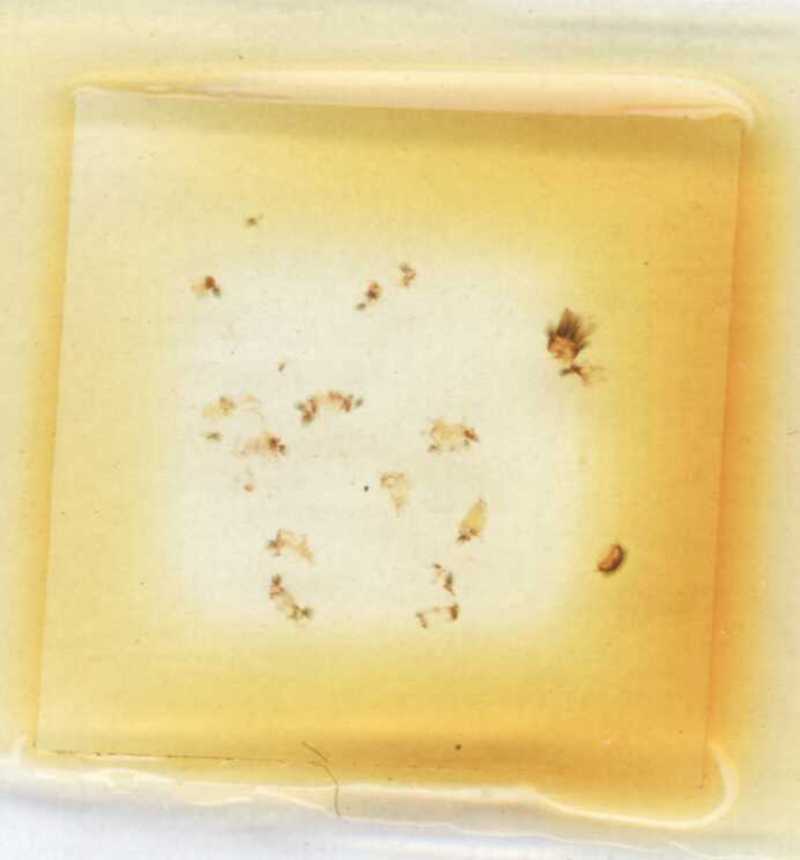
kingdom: Animalia
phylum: Arthropoda
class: Diplopoda
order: Polyxenida
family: Polyxenidae
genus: Polyxenus
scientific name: Polyxenus lagurus
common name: Bristly millipede
